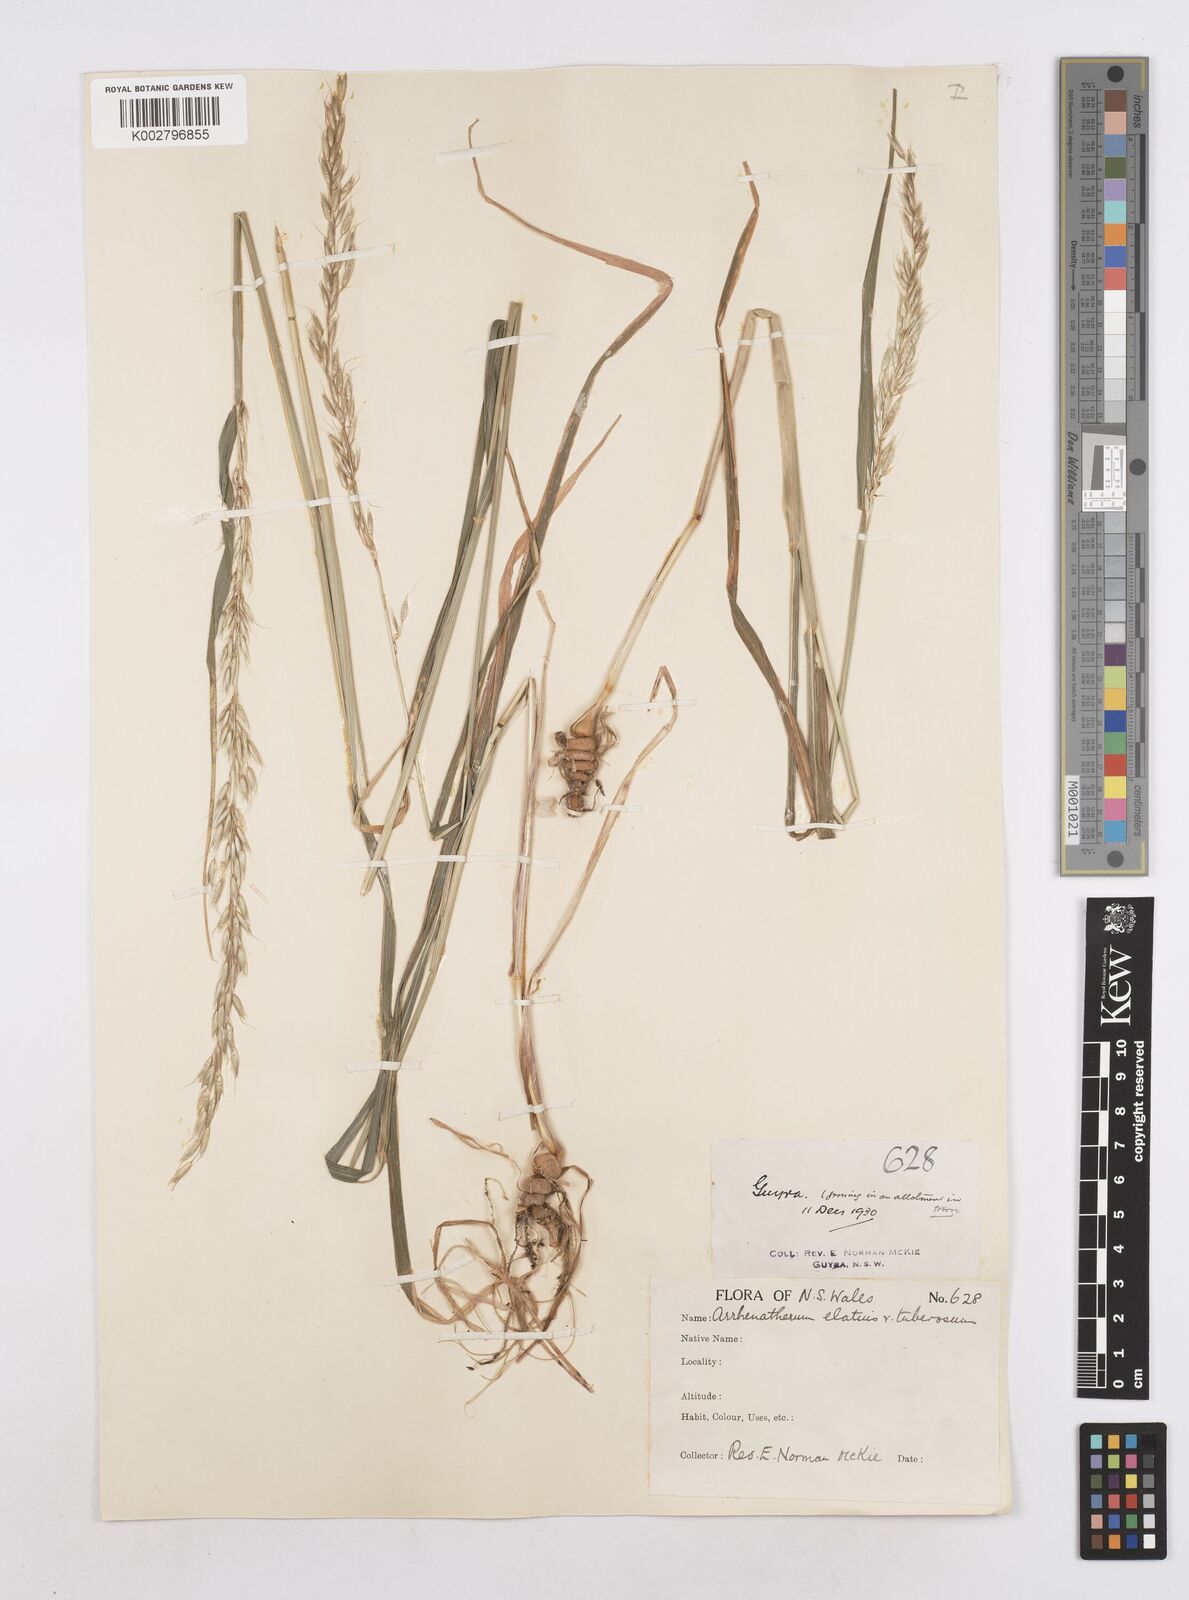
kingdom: Plantae
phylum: Tracheophyta
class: Liliopsida
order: Poales
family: Poaceae
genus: Arrhenatherum
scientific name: Arrhenatherum elatius
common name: Tall oatgrass
